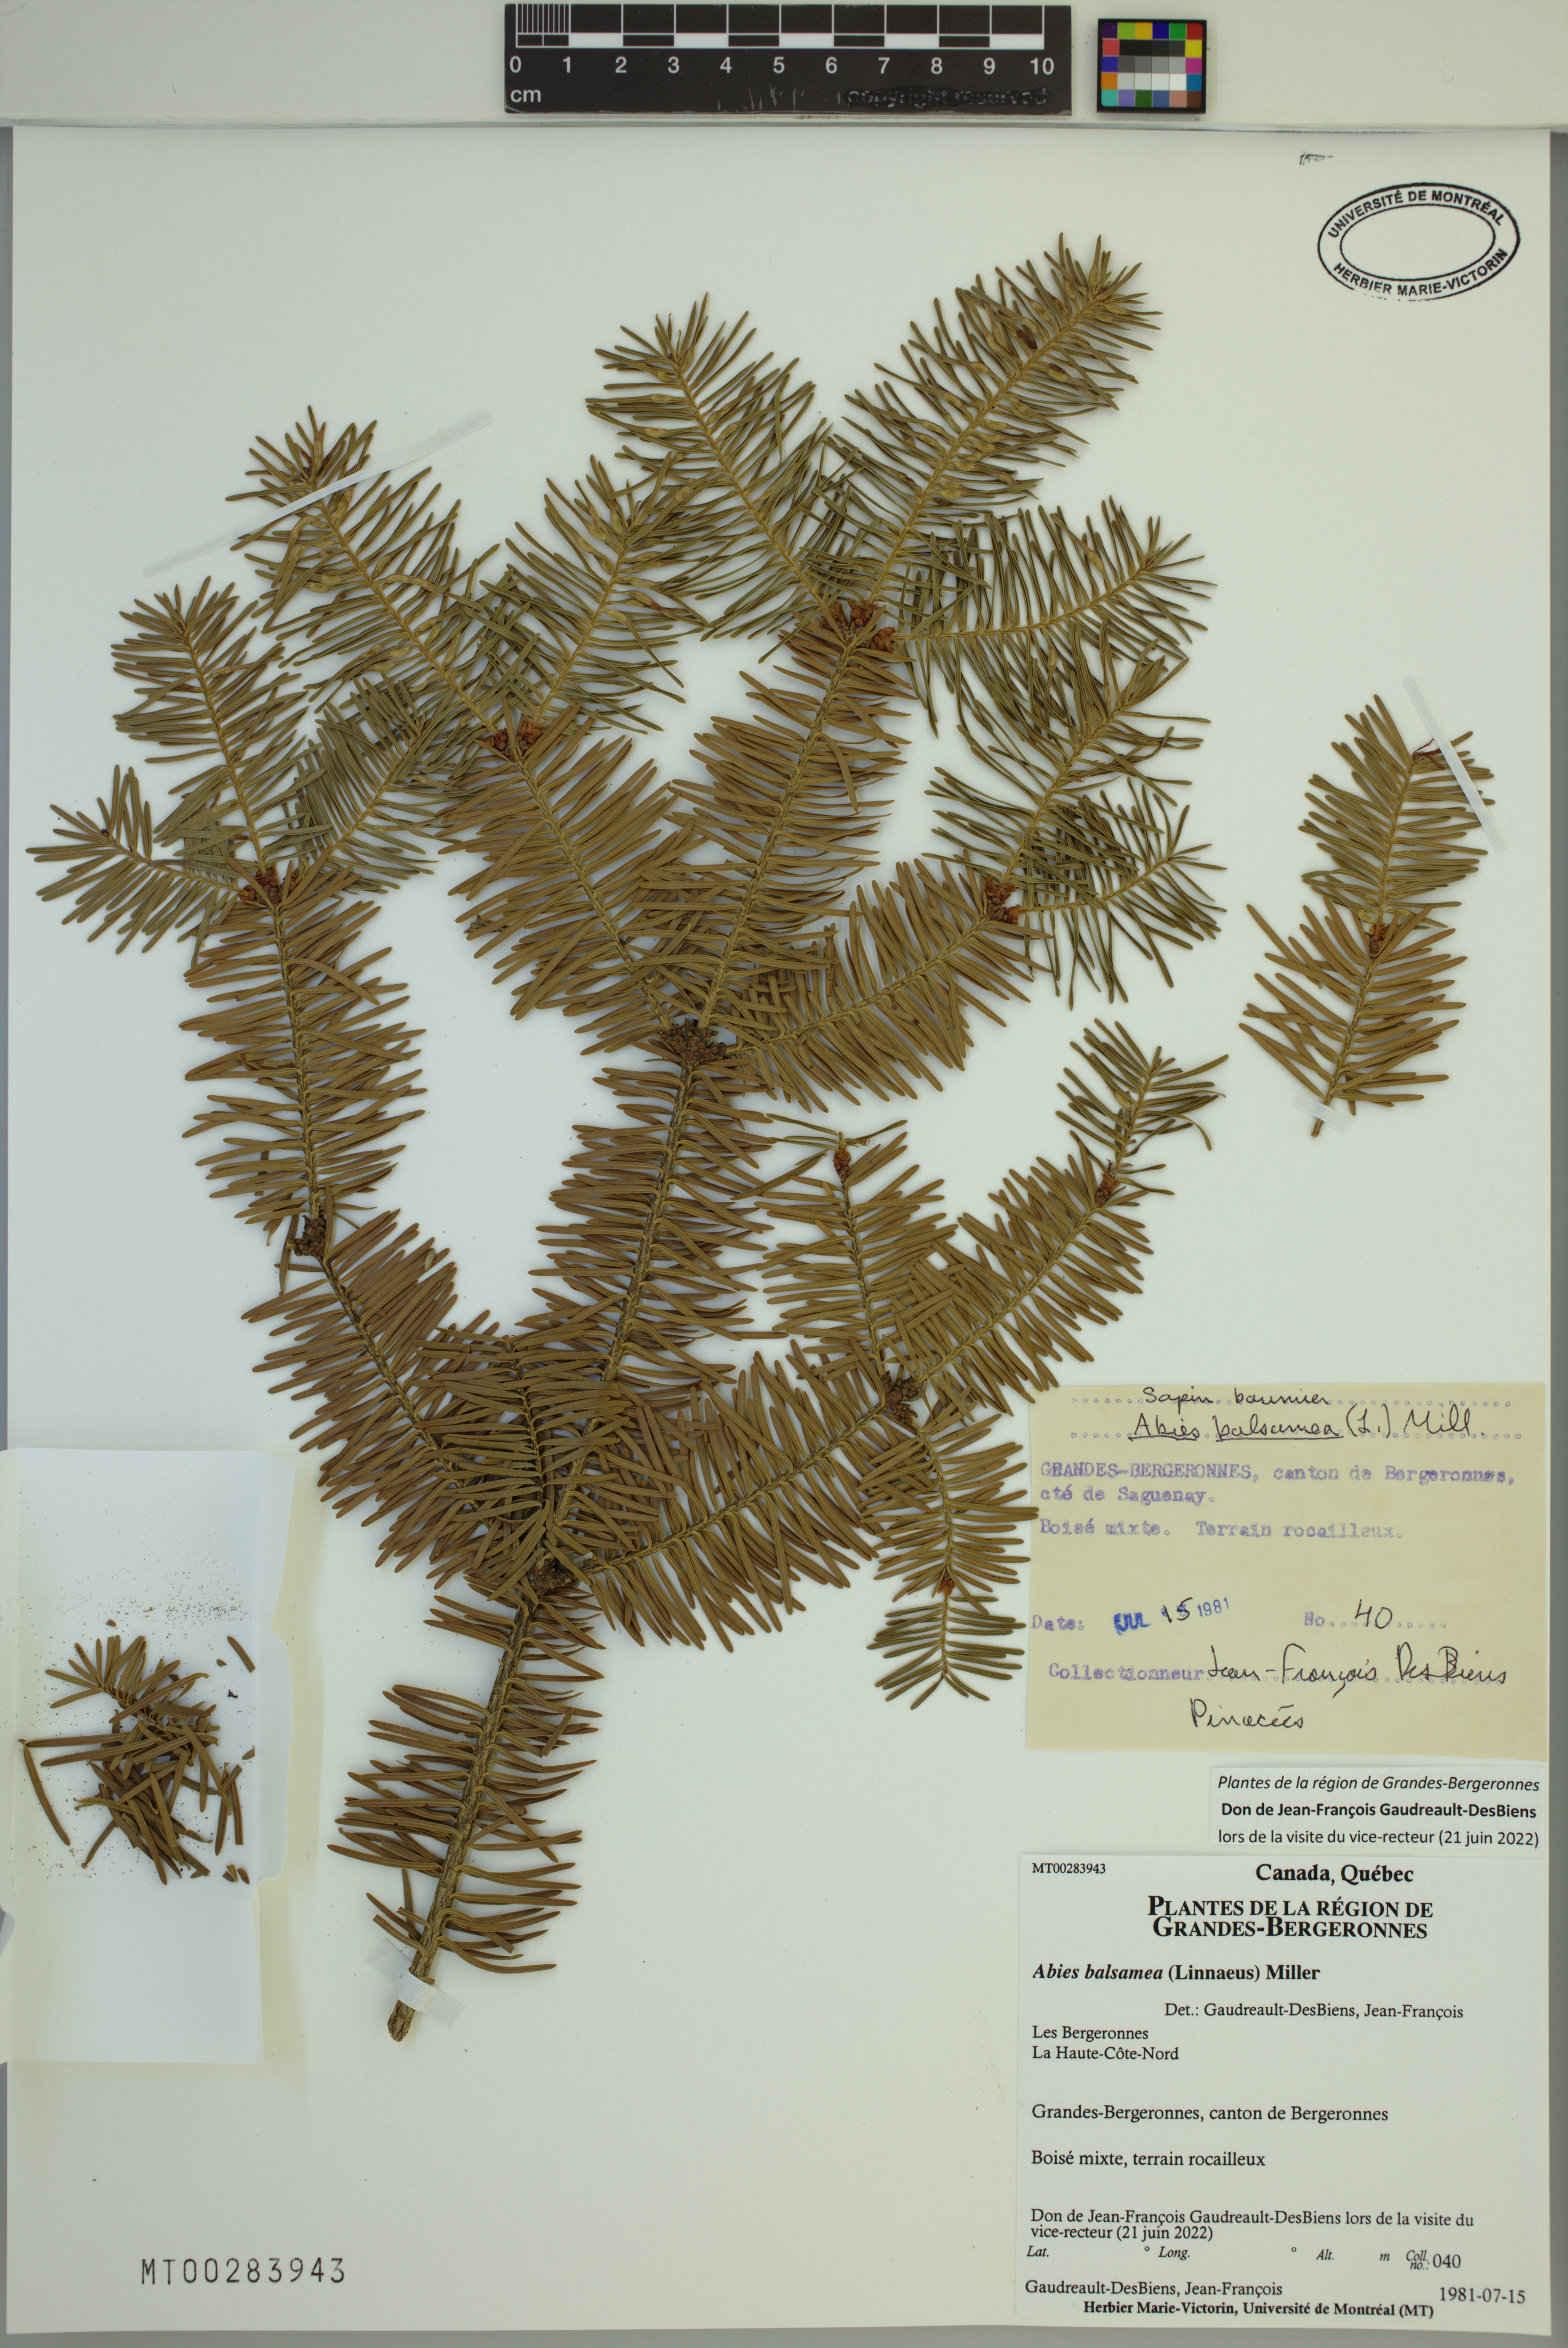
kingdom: Plantae
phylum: Tracheophyta
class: Pinopsida
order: Pinales
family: Pinaceae
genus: Abies
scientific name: Abies balsamea
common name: Balsam fir
